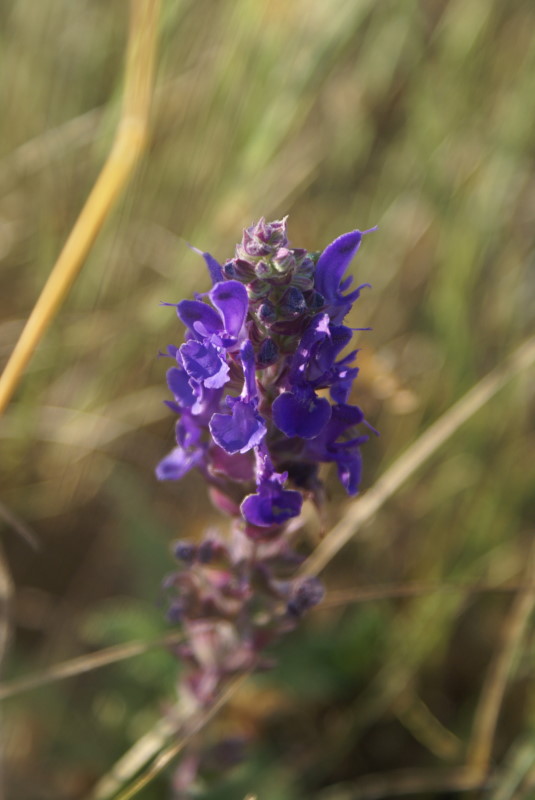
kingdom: Plantae
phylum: Tracheophyta
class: Magnoliopsida
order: Lamiales
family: Lamiaceae
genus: Salvia
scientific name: Salvia
